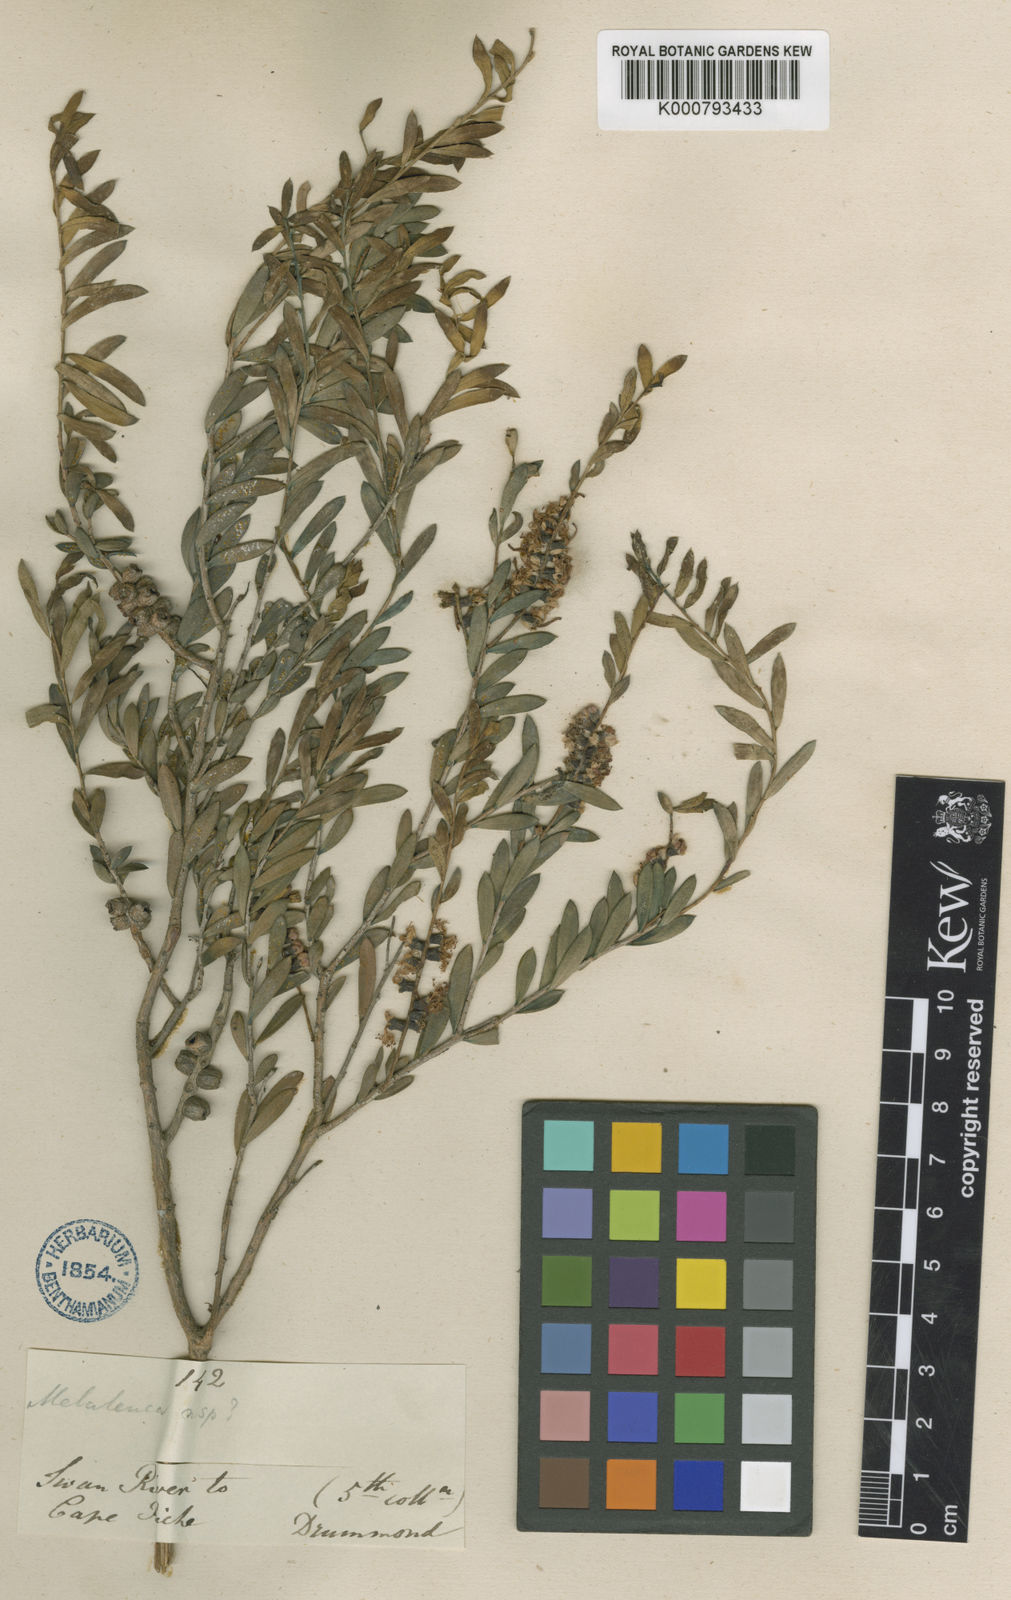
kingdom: Plantae
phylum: Tracheophyta
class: Magnoliopsida
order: Myrtales
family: Myrtaceae
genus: Melaleuca
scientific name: Melaleuca laxiflora
